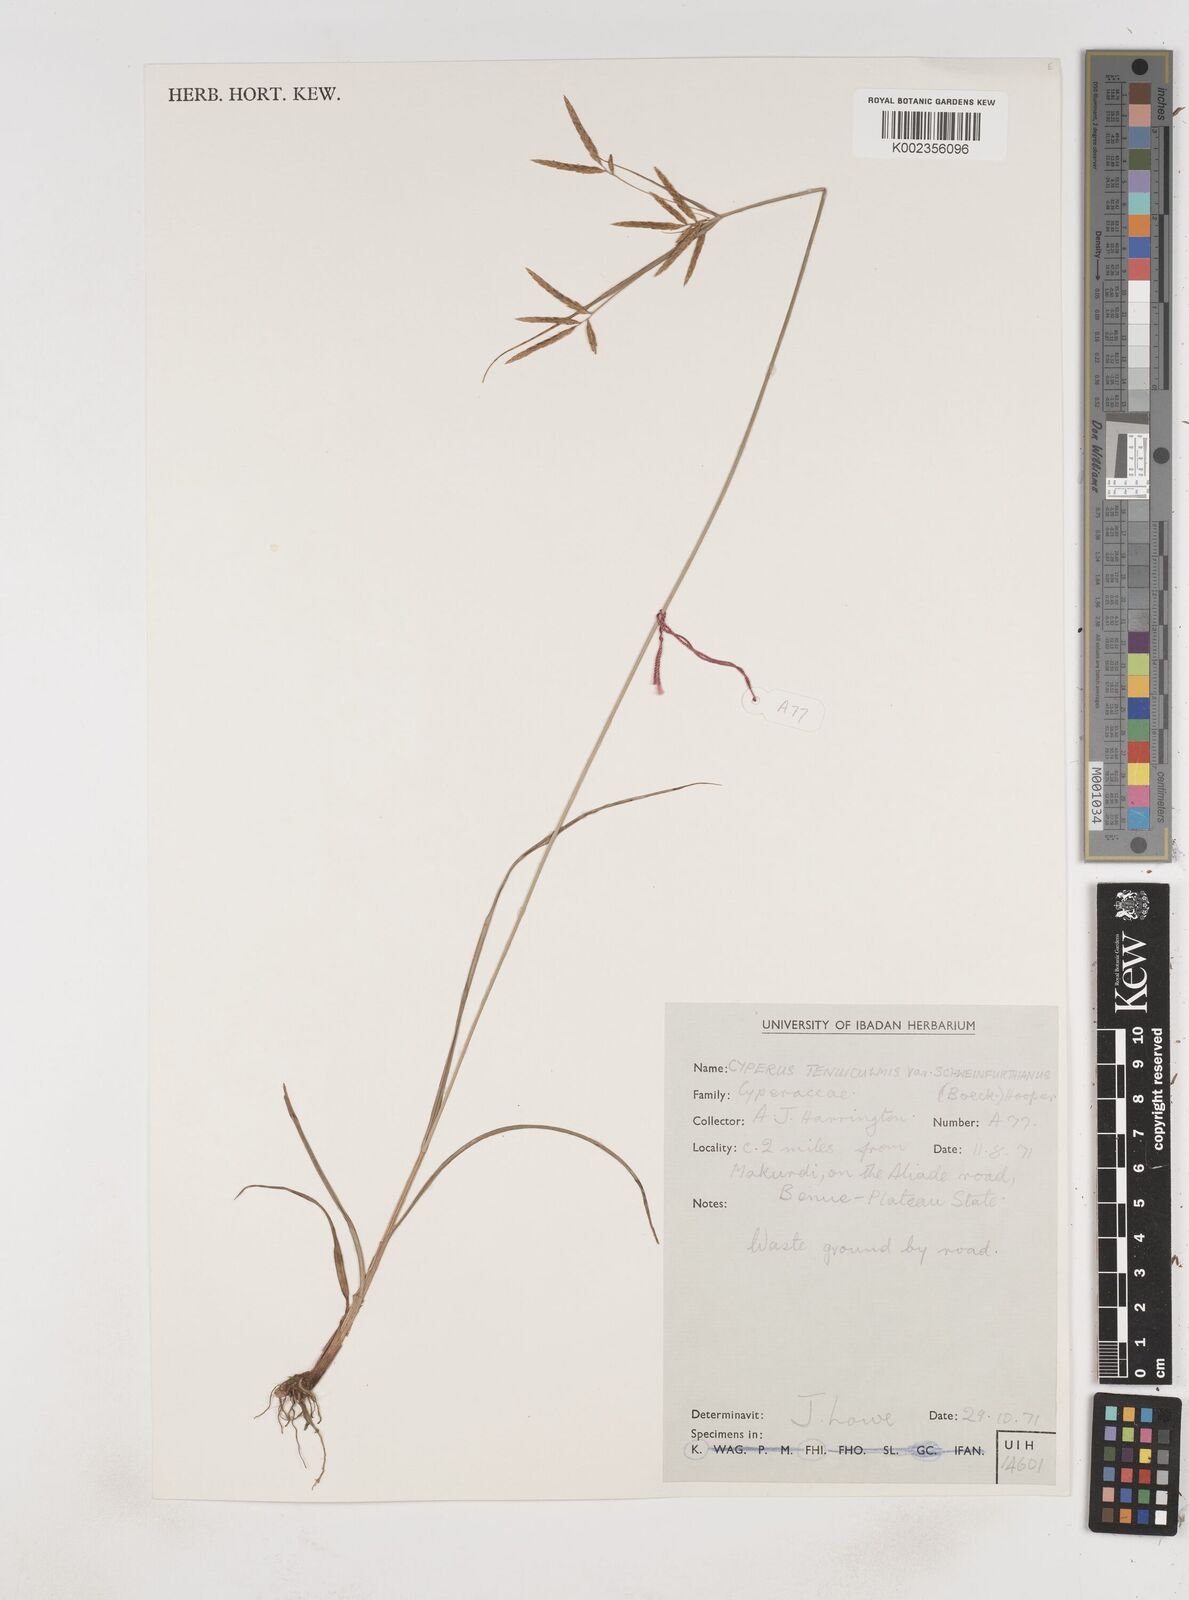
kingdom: Plantae
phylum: Tracheophyta
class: Liliopsida
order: Poales
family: Cyperaceae
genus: Cyperus
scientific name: Cyperus tenuiculmis
